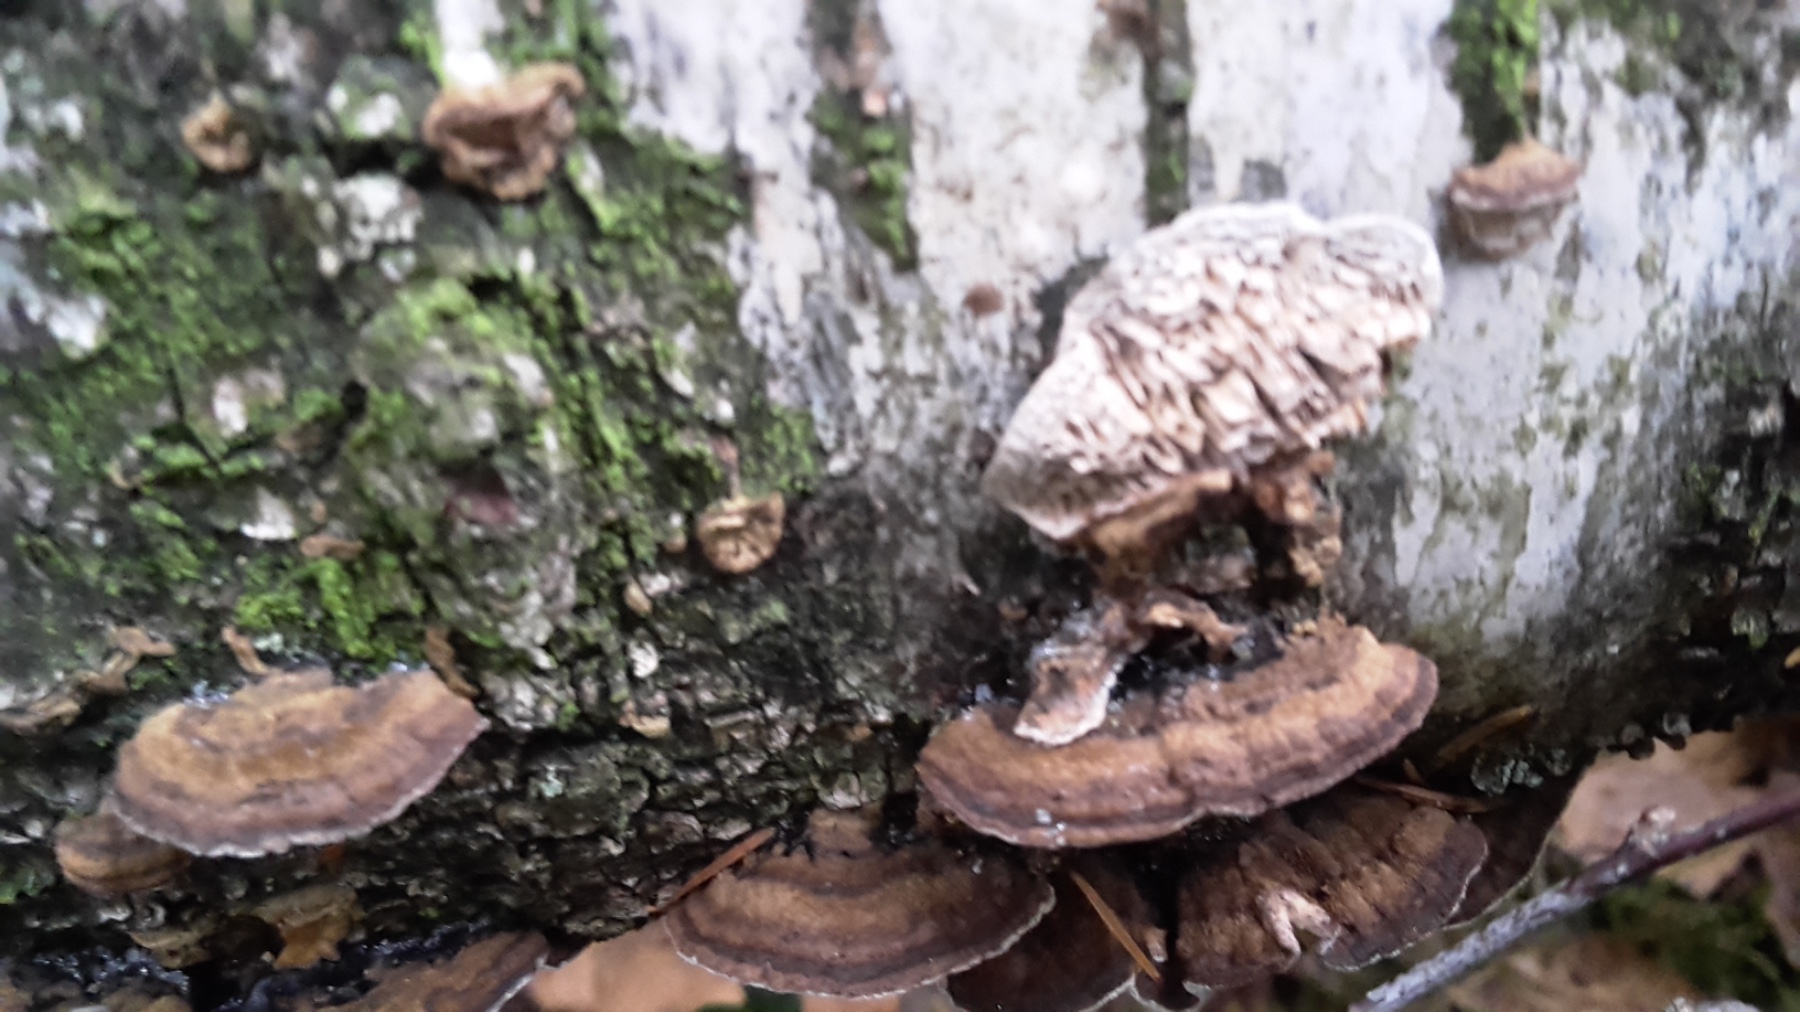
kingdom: Fungi
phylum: Basidiomycota
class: Agaricomycetes
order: Polyporales
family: Polyporaceae
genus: Podofomes
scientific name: Podofomes mollis
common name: blød begporesvamp
